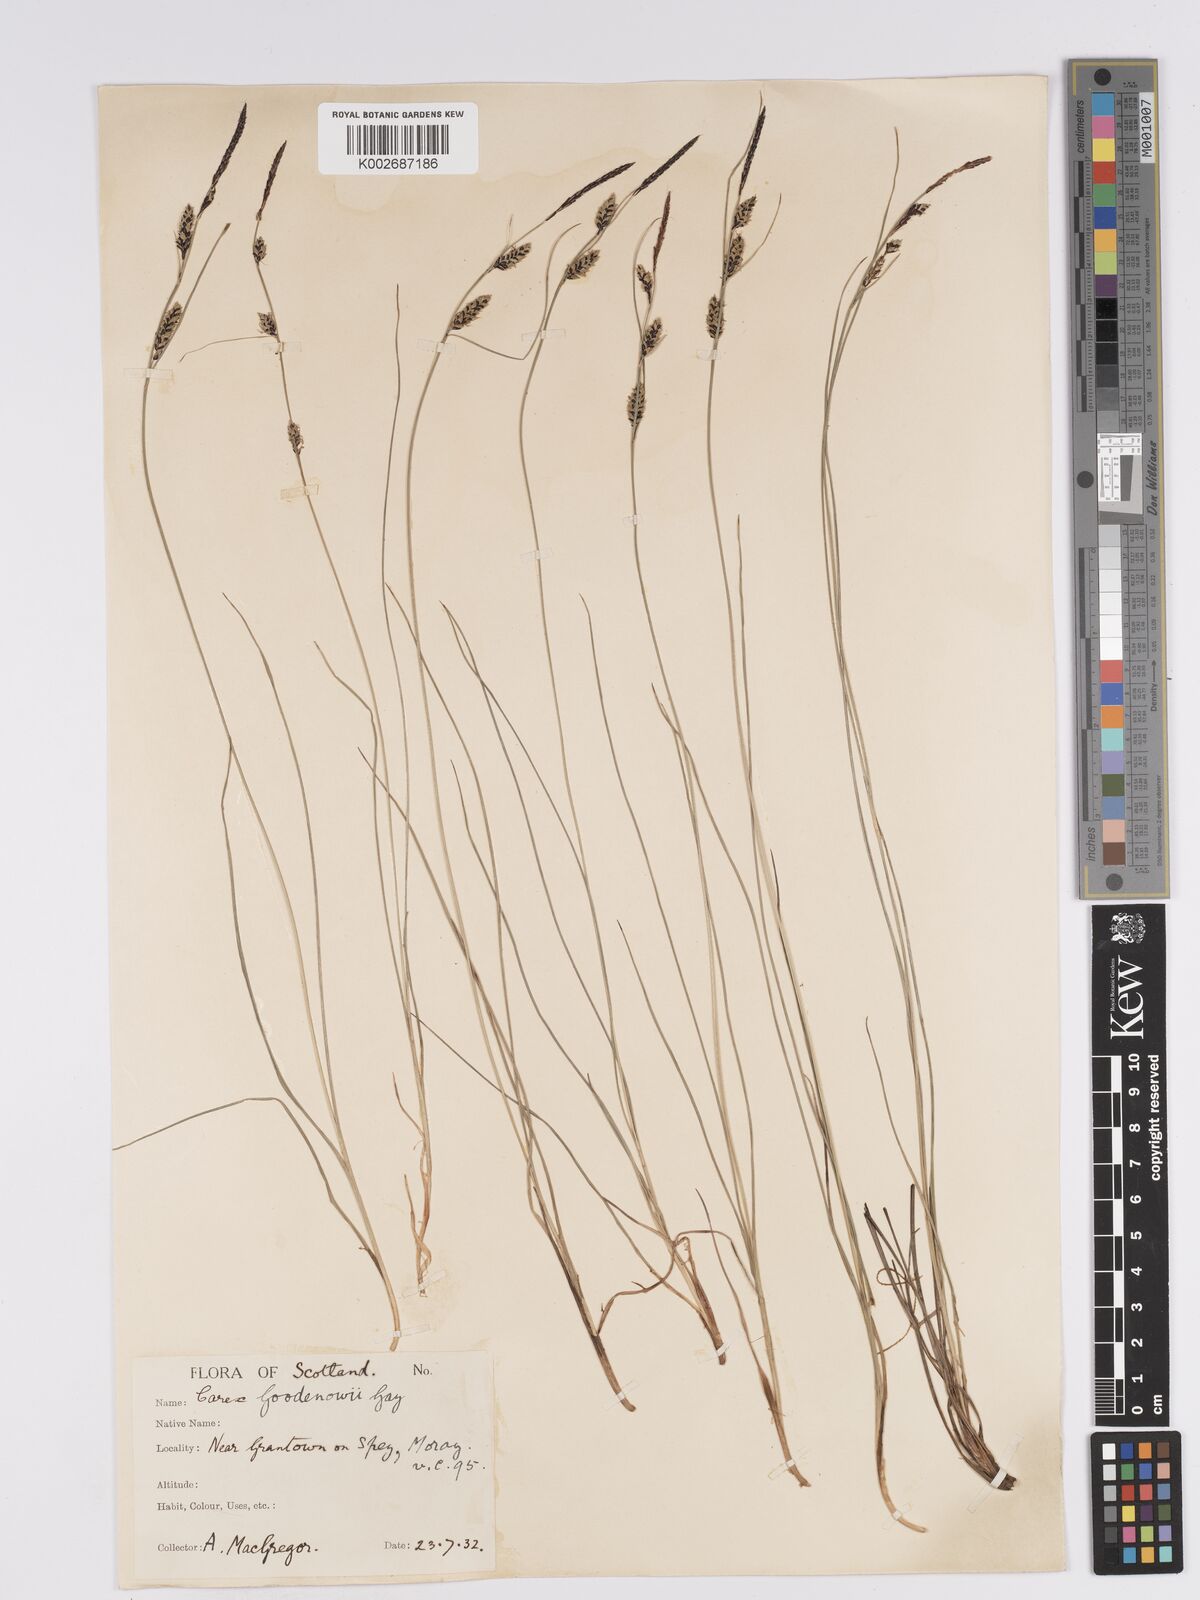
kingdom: Plantae
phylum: Tracheophyta
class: Liliopsida
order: Poales
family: Cyperaceae
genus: Carex
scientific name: Carex nigra
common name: Common sedge
